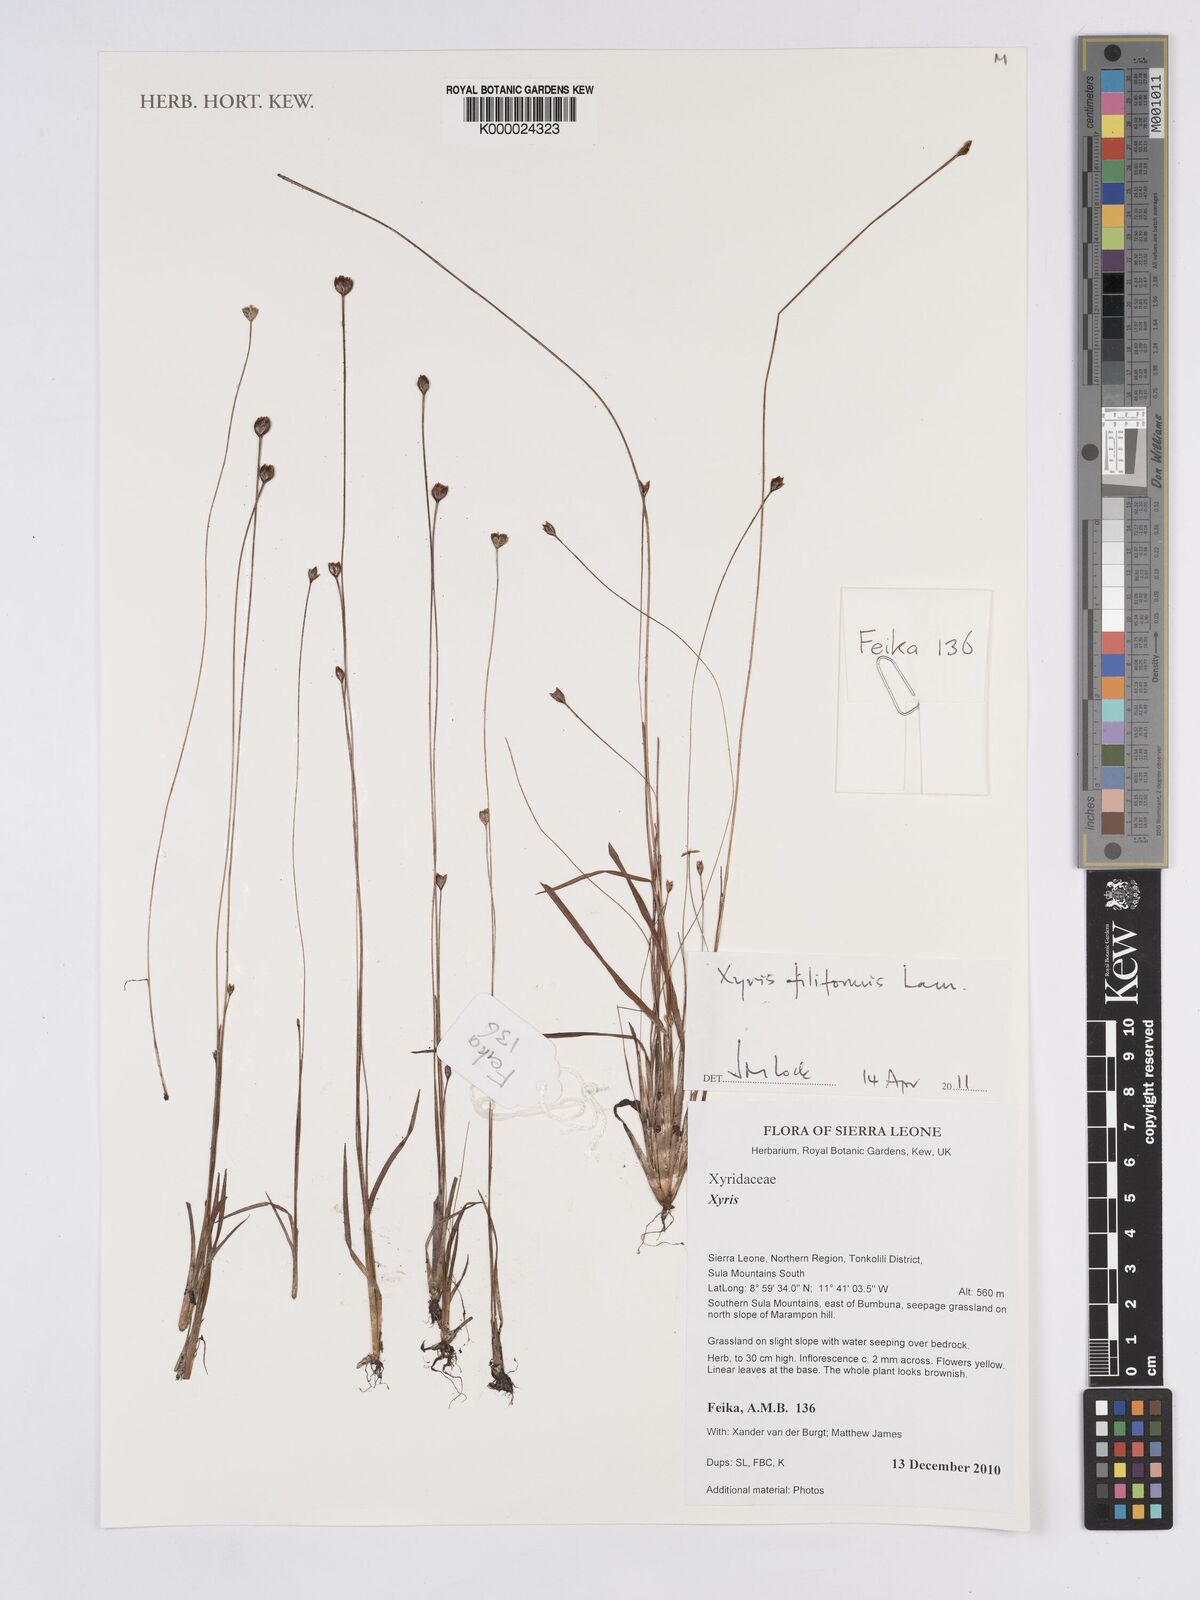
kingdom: Plantae
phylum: Tracheophyta
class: Liliopsida
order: Poales
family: Xyridaceae
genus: Xyris
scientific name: Xyris filiformis
